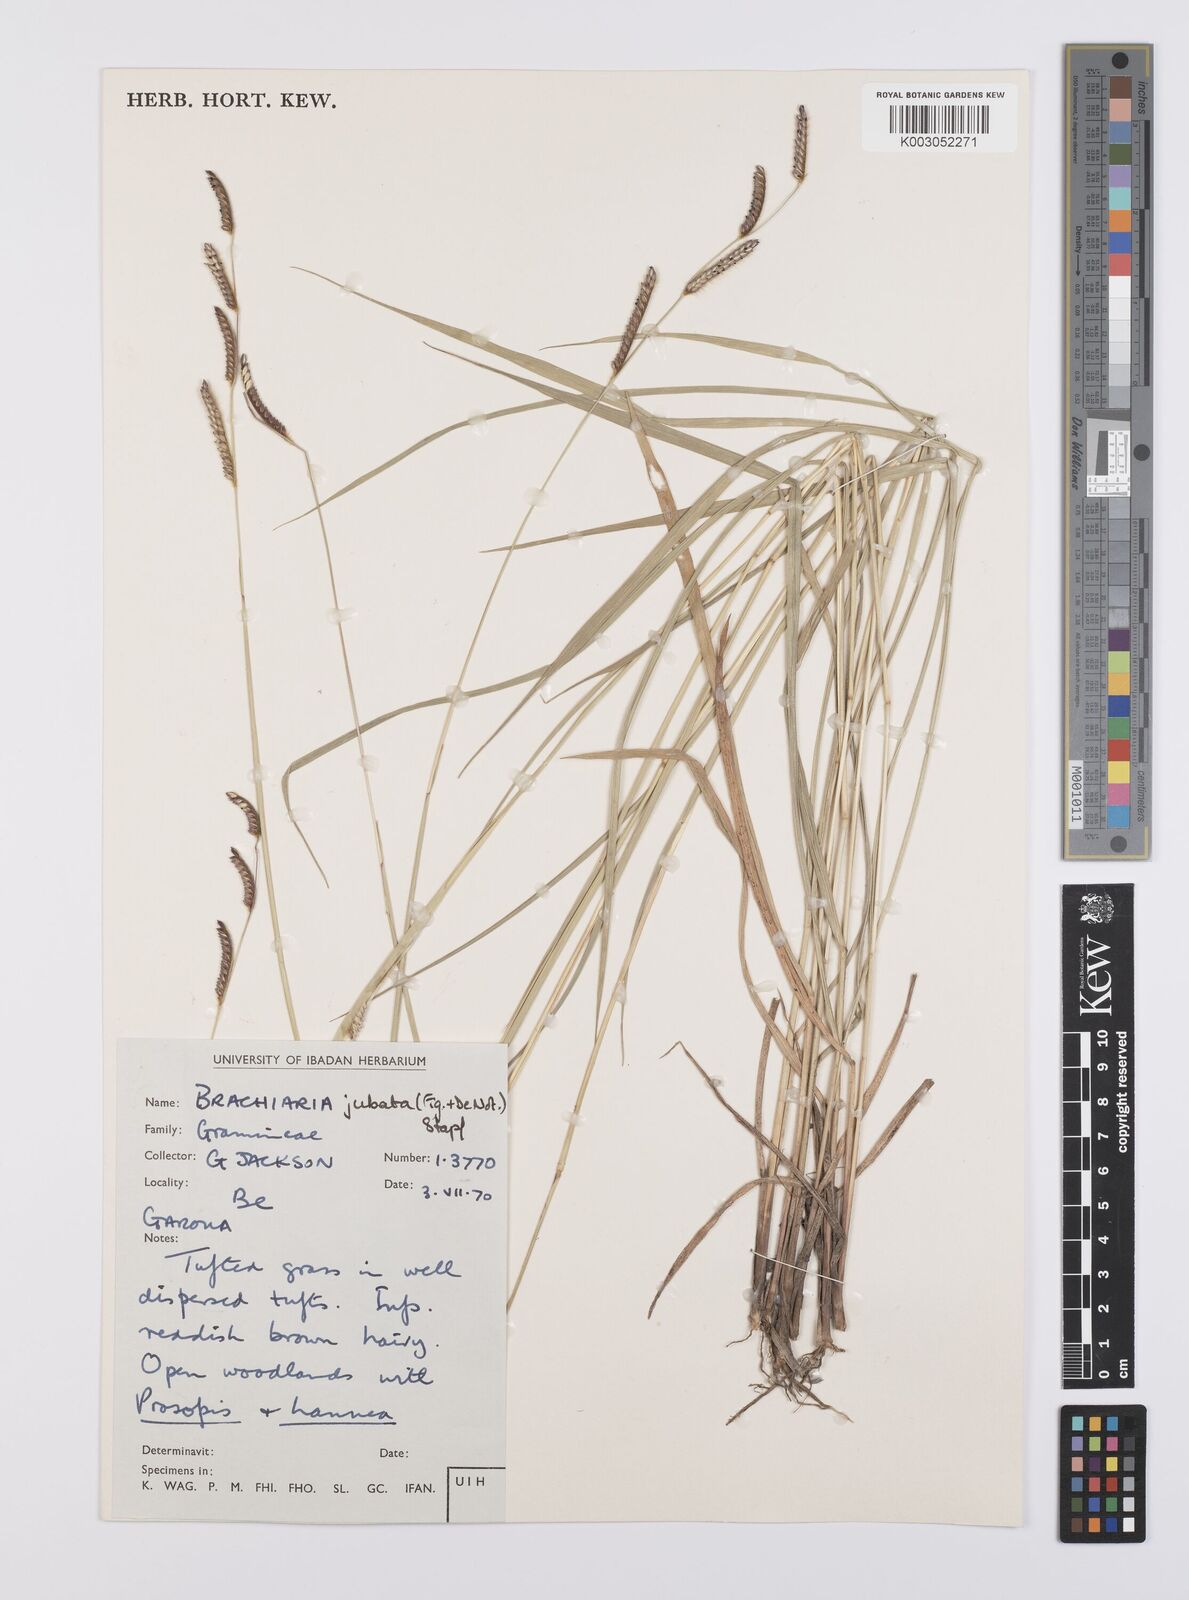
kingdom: Plantae
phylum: Tracheophyta
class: Liliopsida
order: Poales
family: Poaceae
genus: Urochloa
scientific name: Urochloa jubata
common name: Buffalograss
